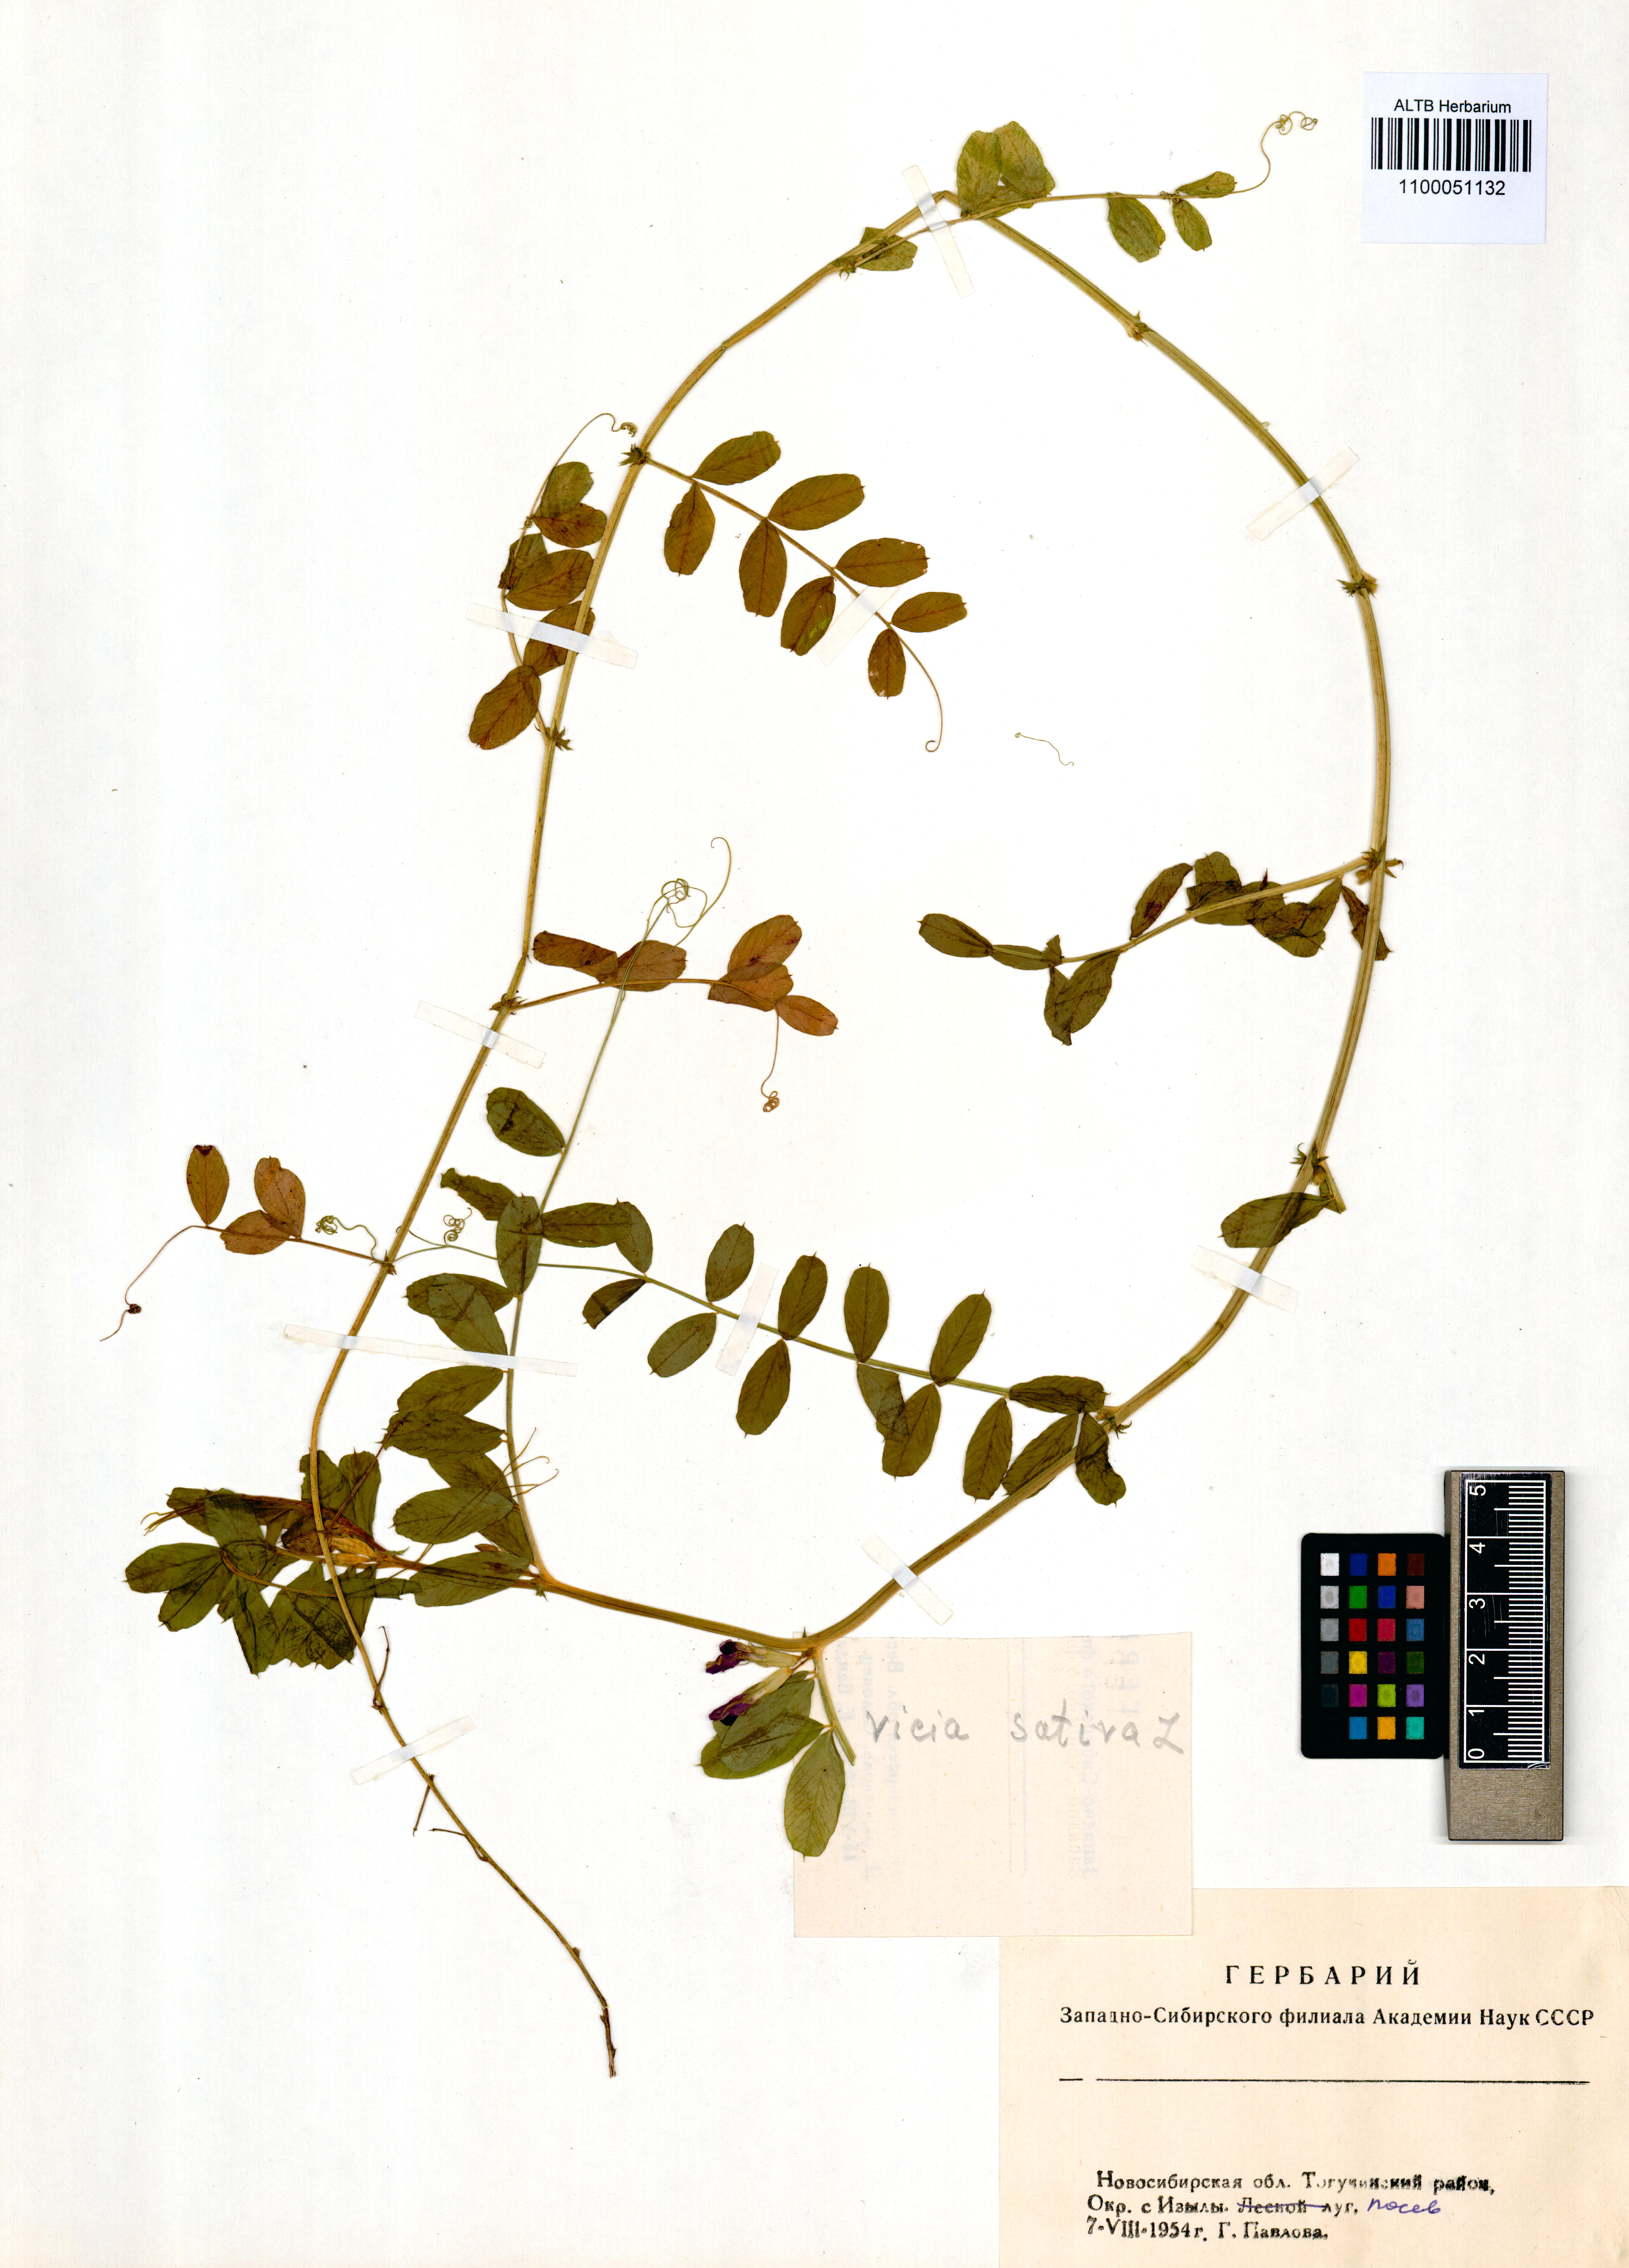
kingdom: Plantae
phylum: Tracheophyta
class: Magnoliopsida
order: Fabales
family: Fabaceae
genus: Vicia
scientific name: Vicia sativa
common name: Garden vetch
